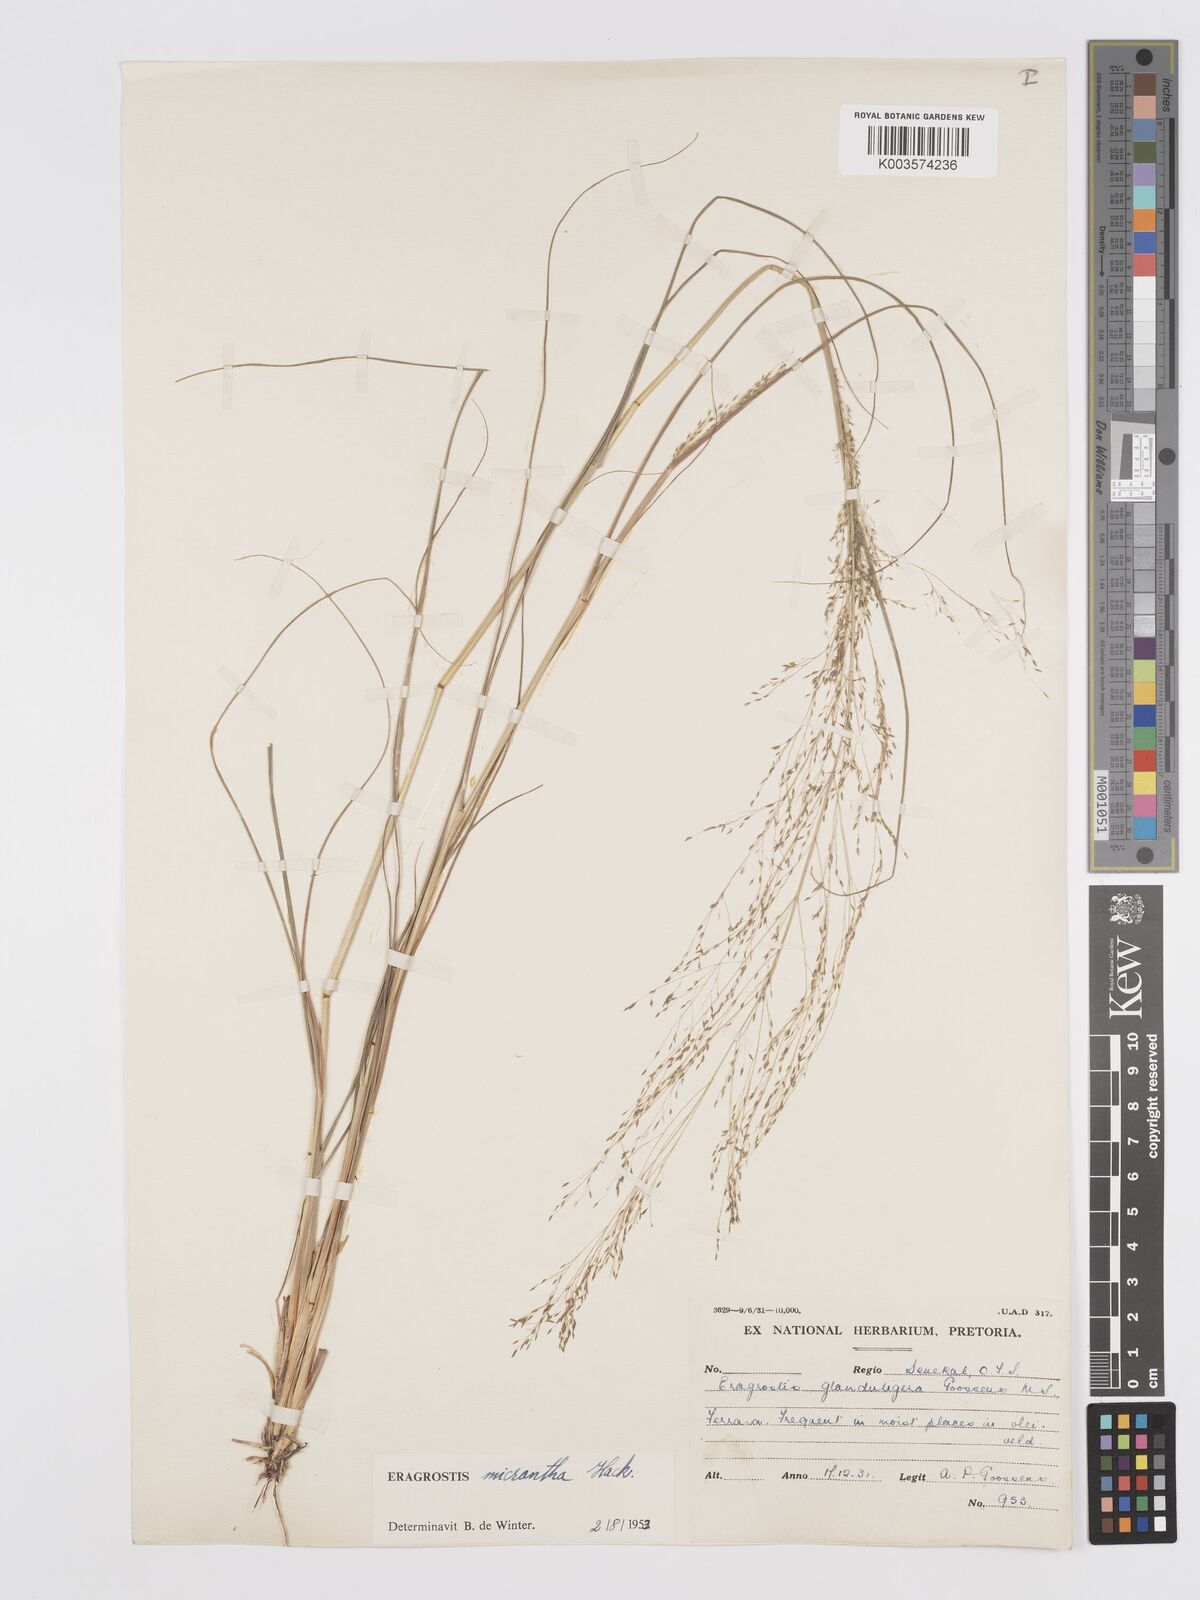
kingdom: Plantae
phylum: Tracheophyta
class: Liliopsida
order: Poales
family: Poaceae
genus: Eragrostis
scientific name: Eragrostis micrantha
